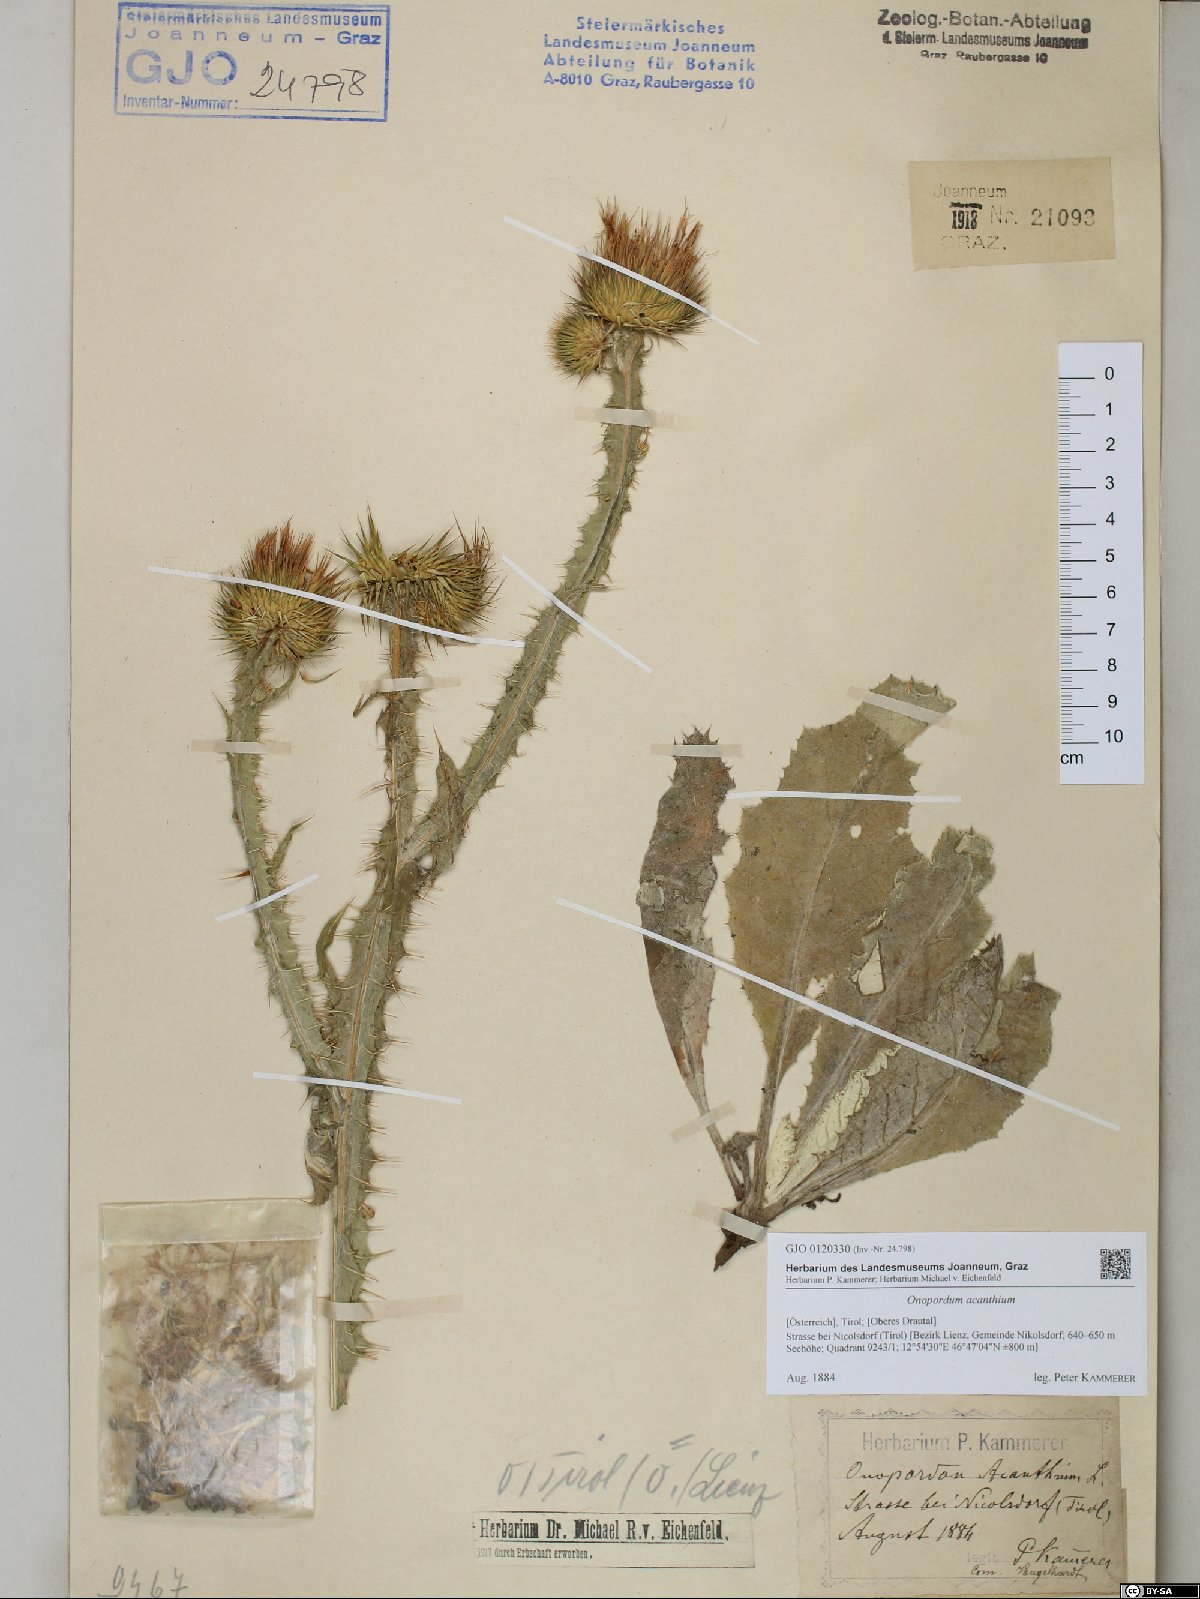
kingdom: Plantae
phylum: Tracheophyta
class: Magnoliopsida
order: Asterales
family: Asteraceae
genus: Onopordum
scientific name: Onopordum acanthium
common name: Scotch thistle
